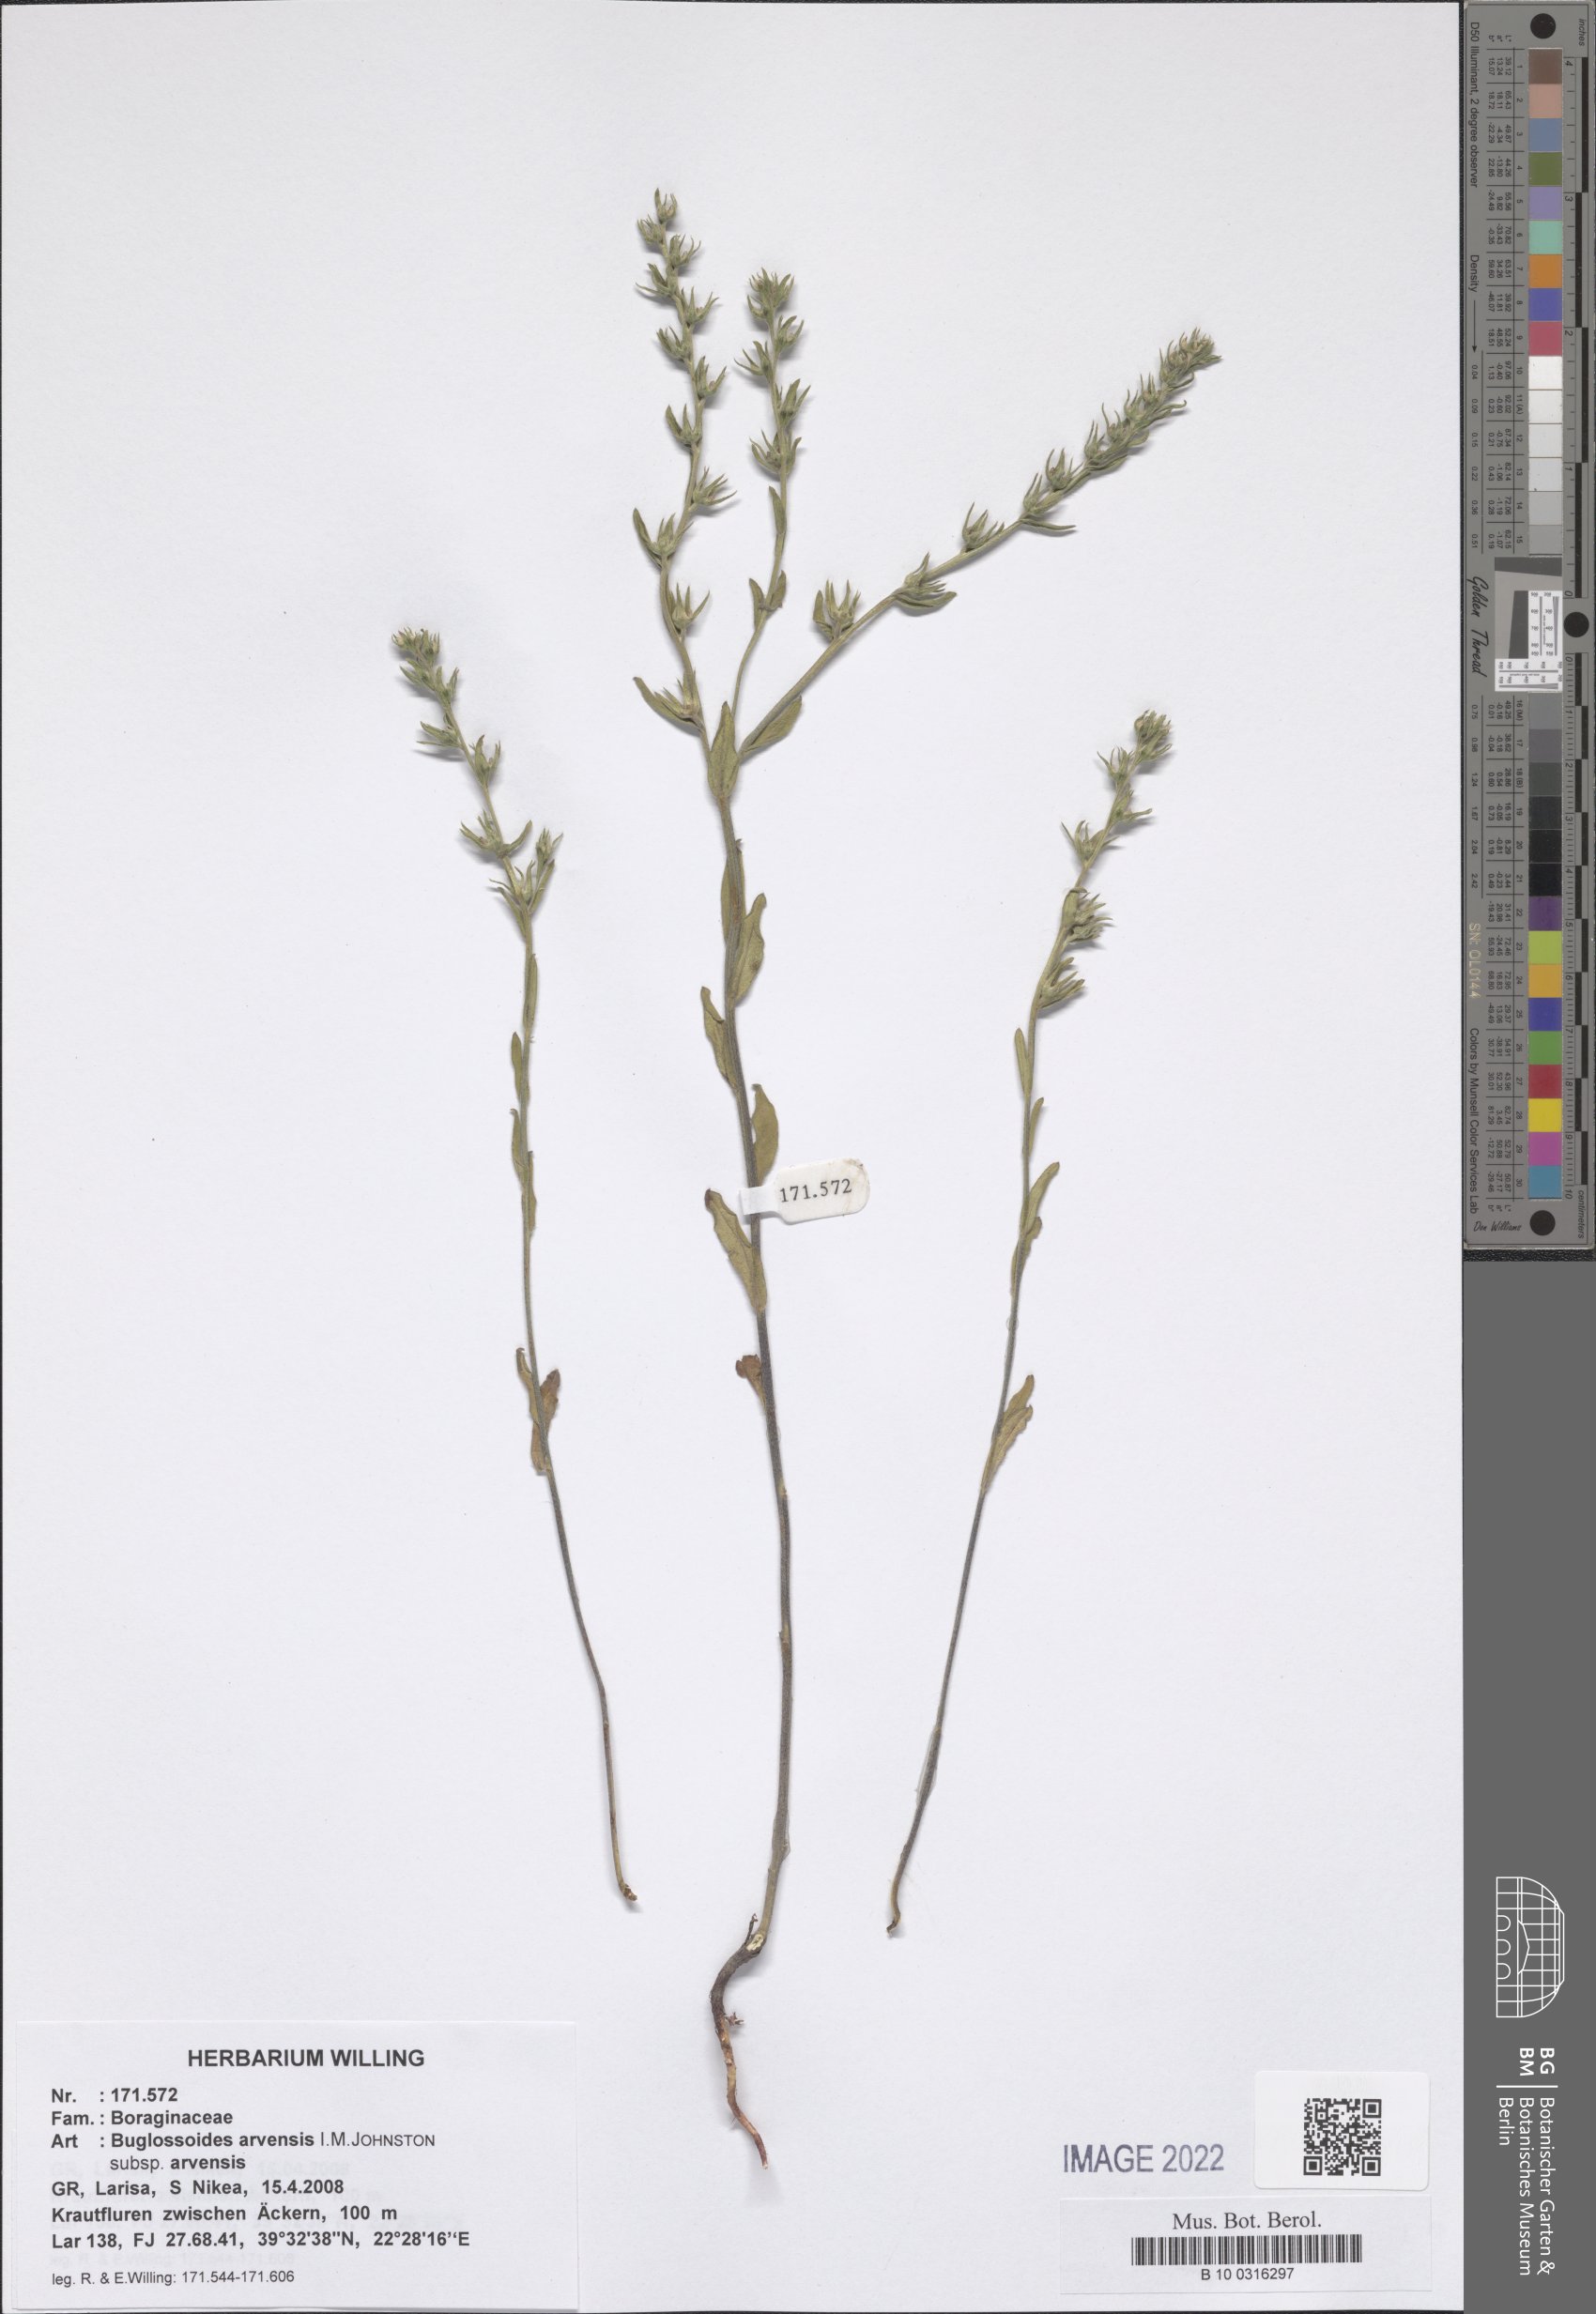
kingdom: Plantae
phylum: Tracheophyta
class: Magnoliopsida
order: Boraginales
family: Boraginaceae
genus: Buglossoides
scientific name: Buglossoides arvensis
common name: Corn gromwell
